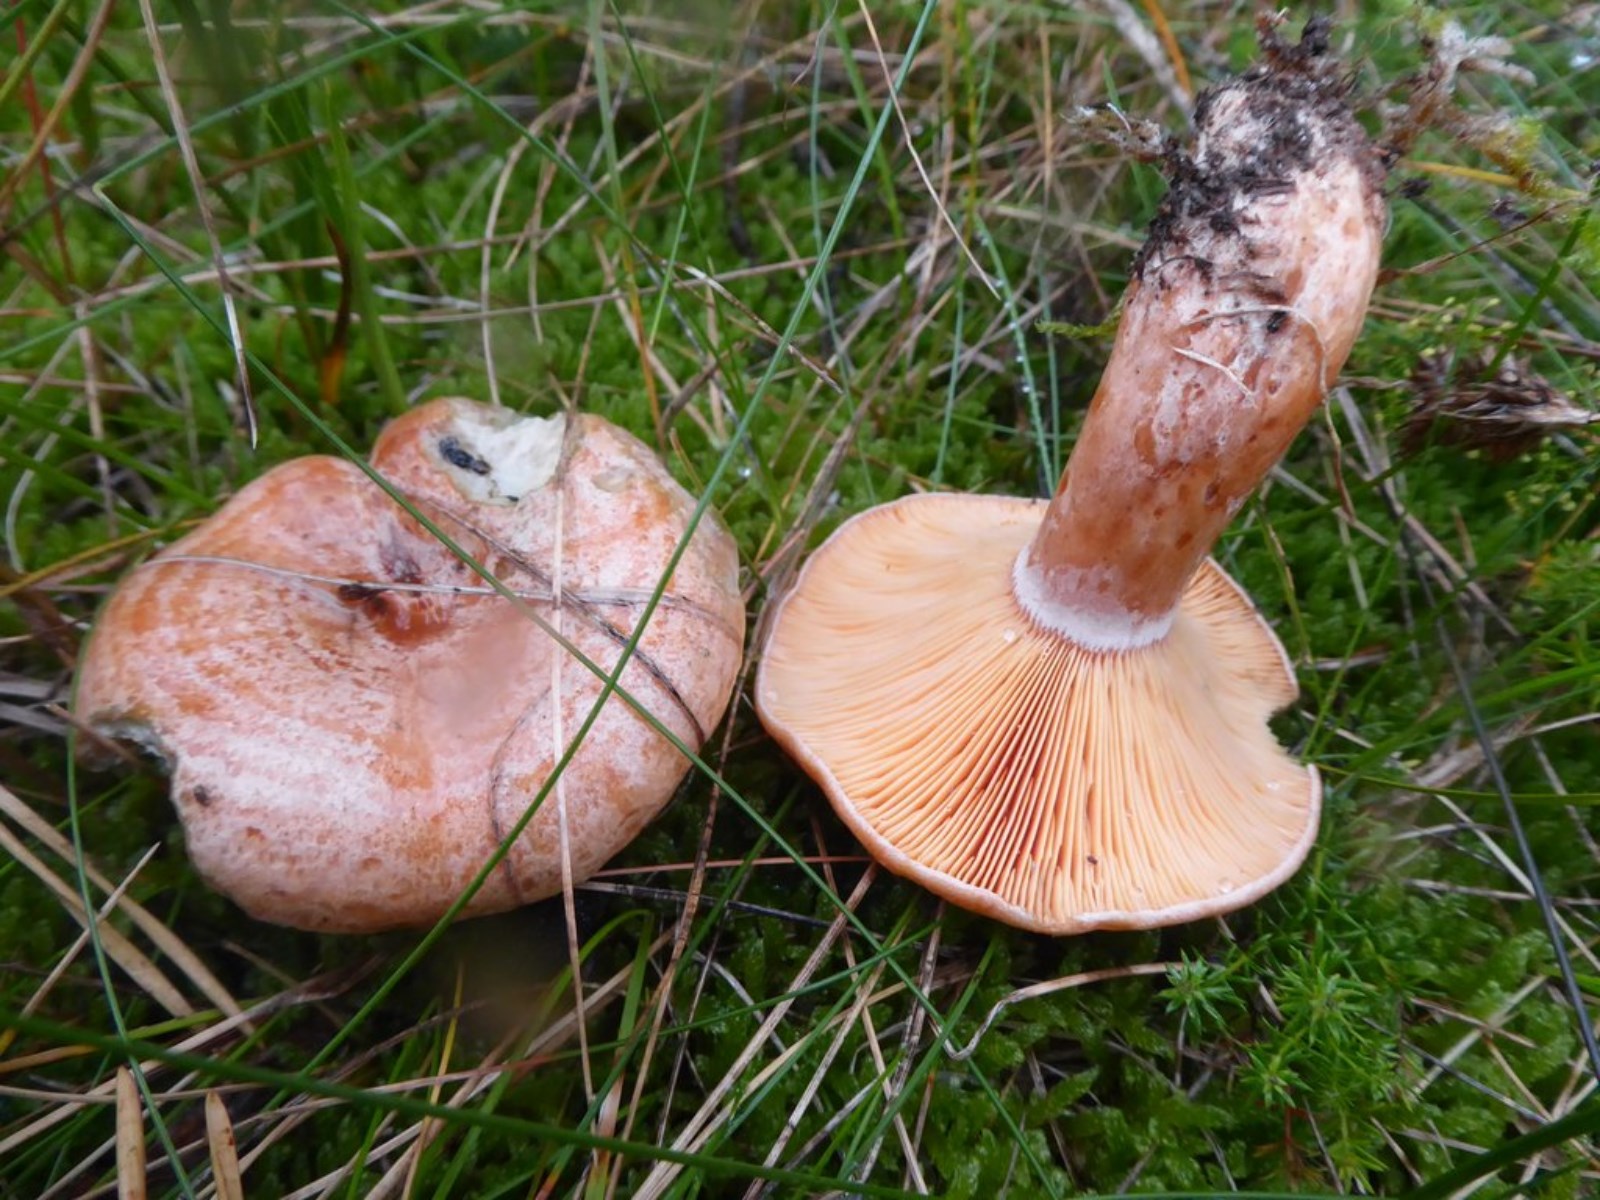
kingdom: Fungi
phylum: Basidiomycota
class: Agaricomycetes
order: Russulales
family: Russulaceae
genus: Lactarius
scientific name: Lactarius deliciosus
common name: velsmagende mælkehat
